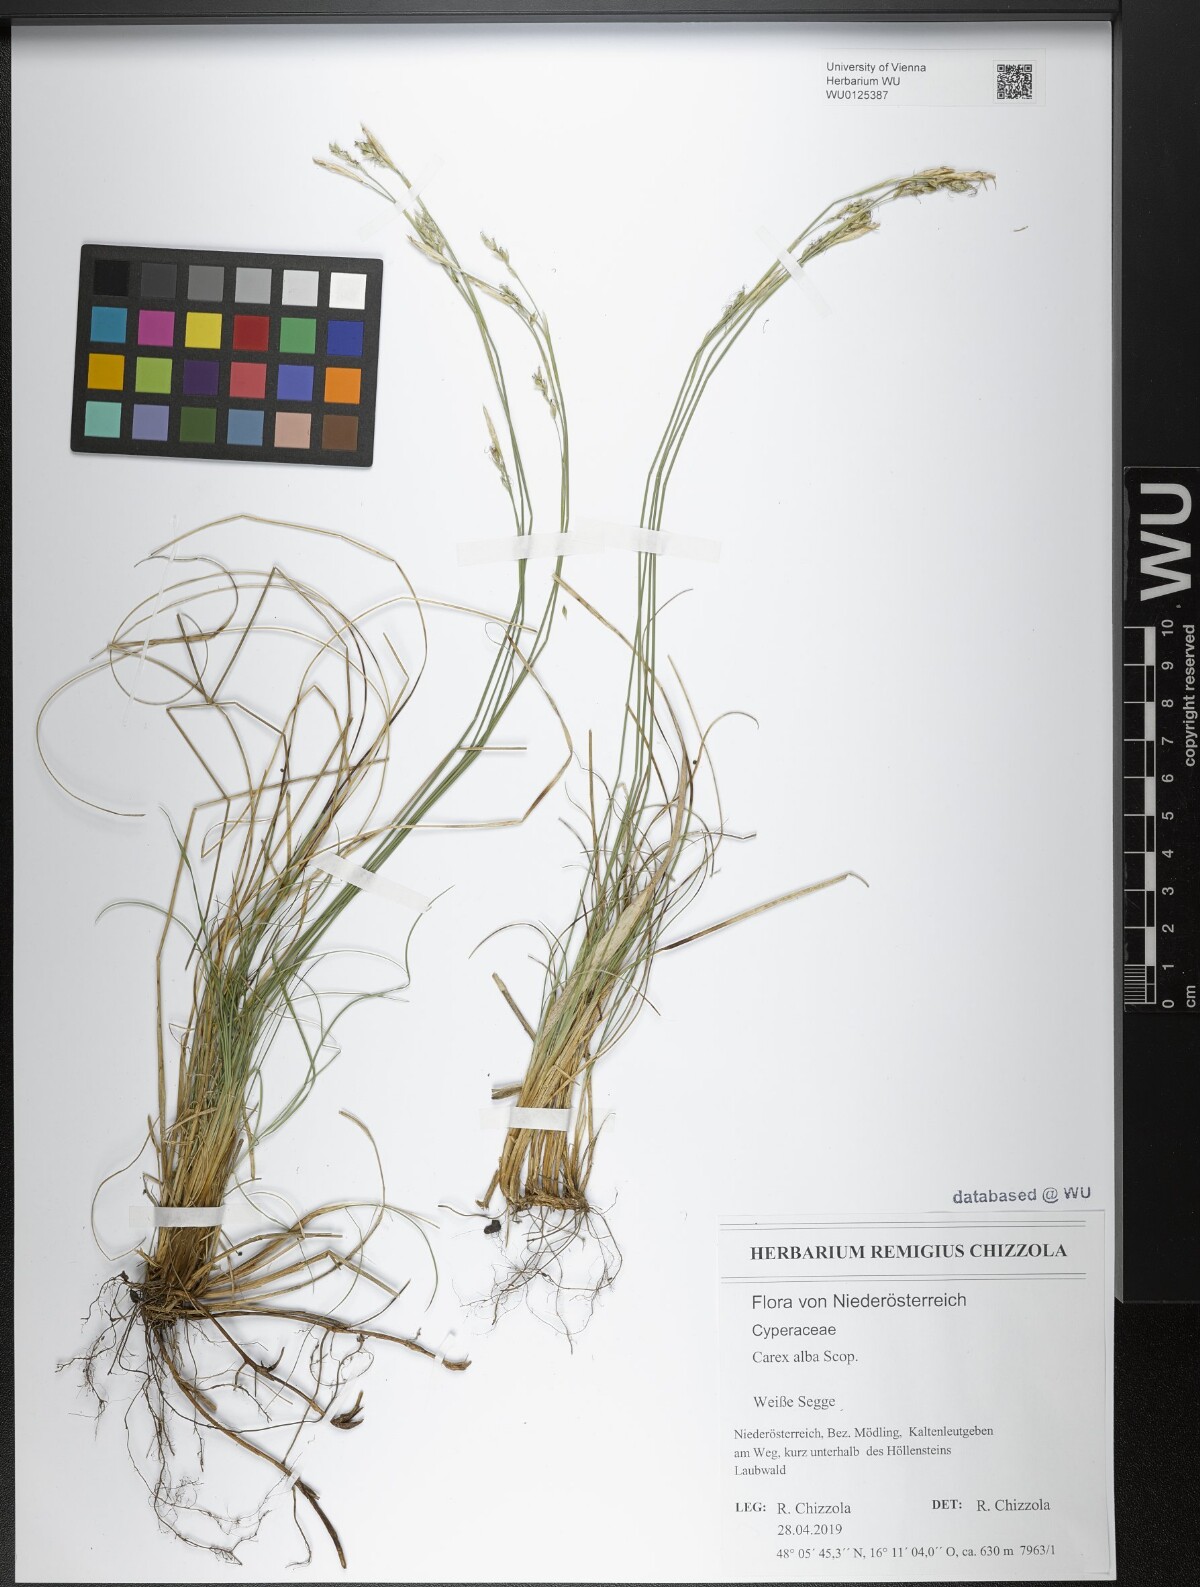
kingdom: Plantae
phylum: Tracheophyta
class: Liliopsida
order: Poales
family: Cyperaceae
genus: Carex
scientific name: Carex alba
